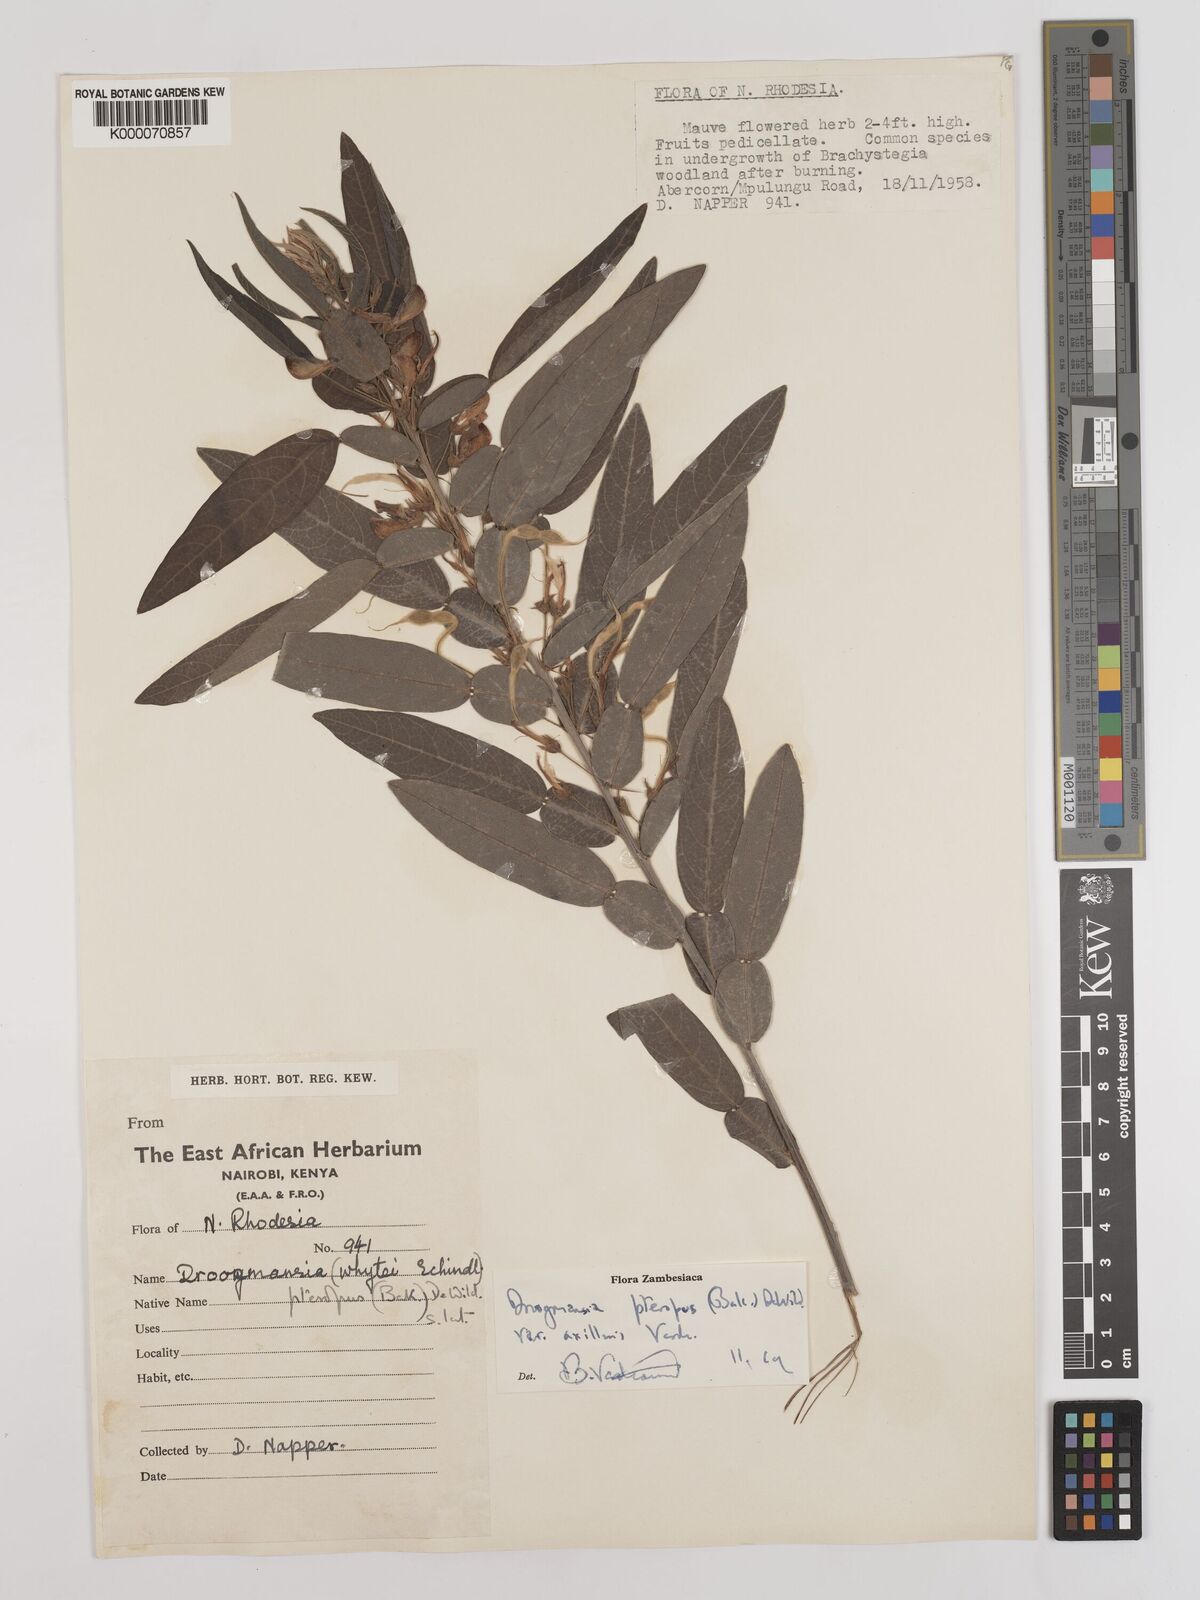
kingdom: Plantae
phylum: Tracheophyta
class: Magnoliopsida
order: Fabales
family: Fabaceae
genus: Droogmansia
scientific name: Droogmansia pteropus
